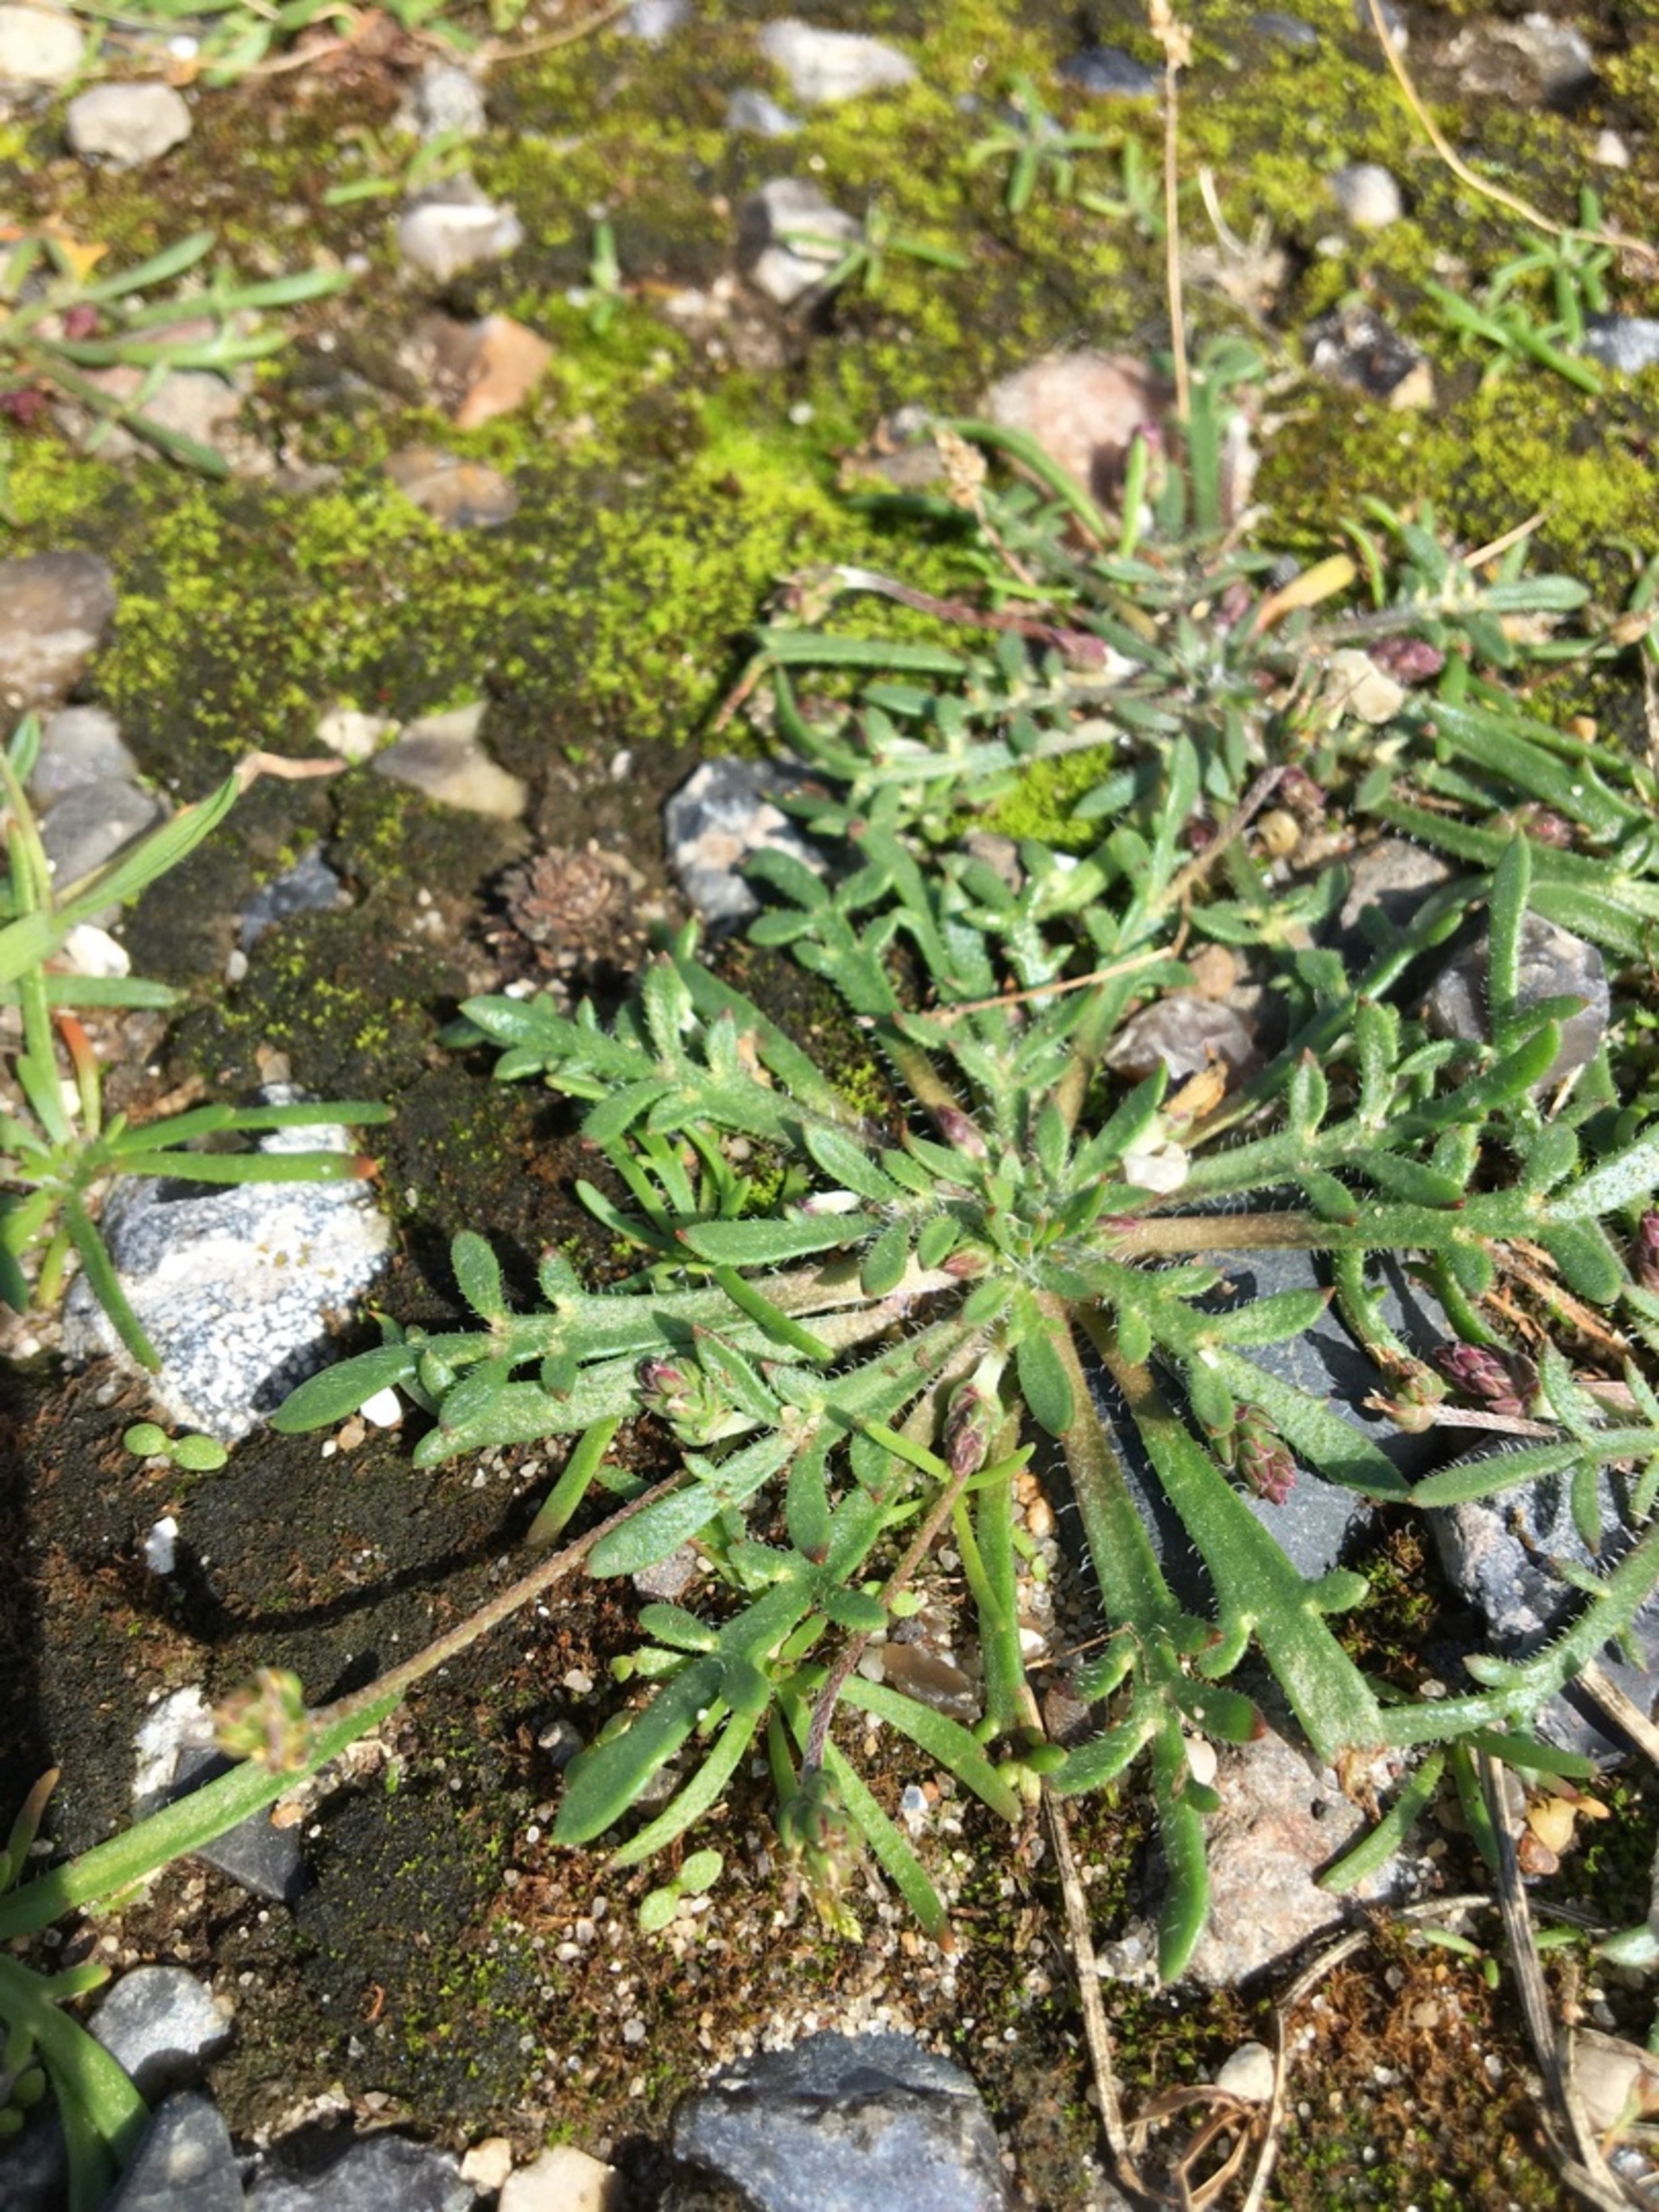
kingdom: Plantae
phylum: Tracheophyta
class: Magnoliopsida
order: Lamiales
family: Plantaginaceae
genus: Plantago
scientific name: Plantago coronopus
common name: Fliget vejbred
